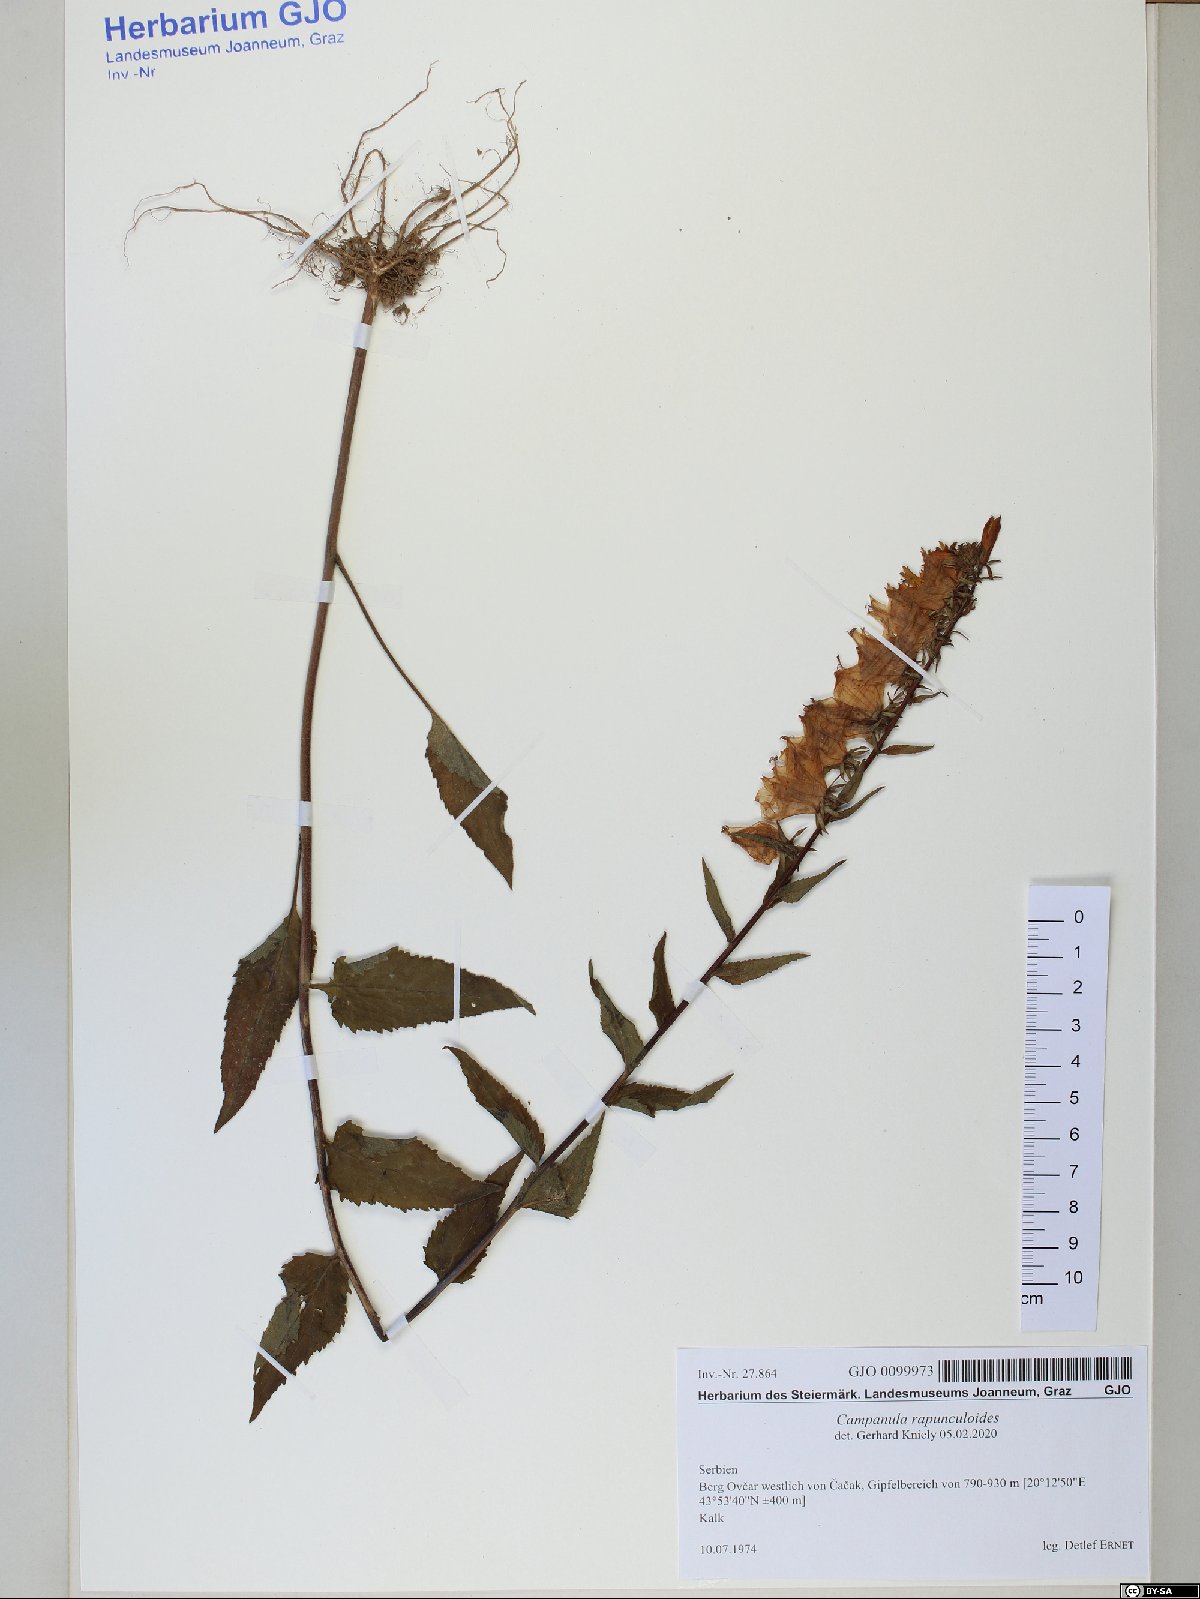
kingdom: Plantae
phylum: Tracheophyta
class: Magnoliopsida
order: Asterales
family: Campanulaceae
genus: Campanula
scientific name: Campanula rapunculoides
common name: Creeping bellflower
